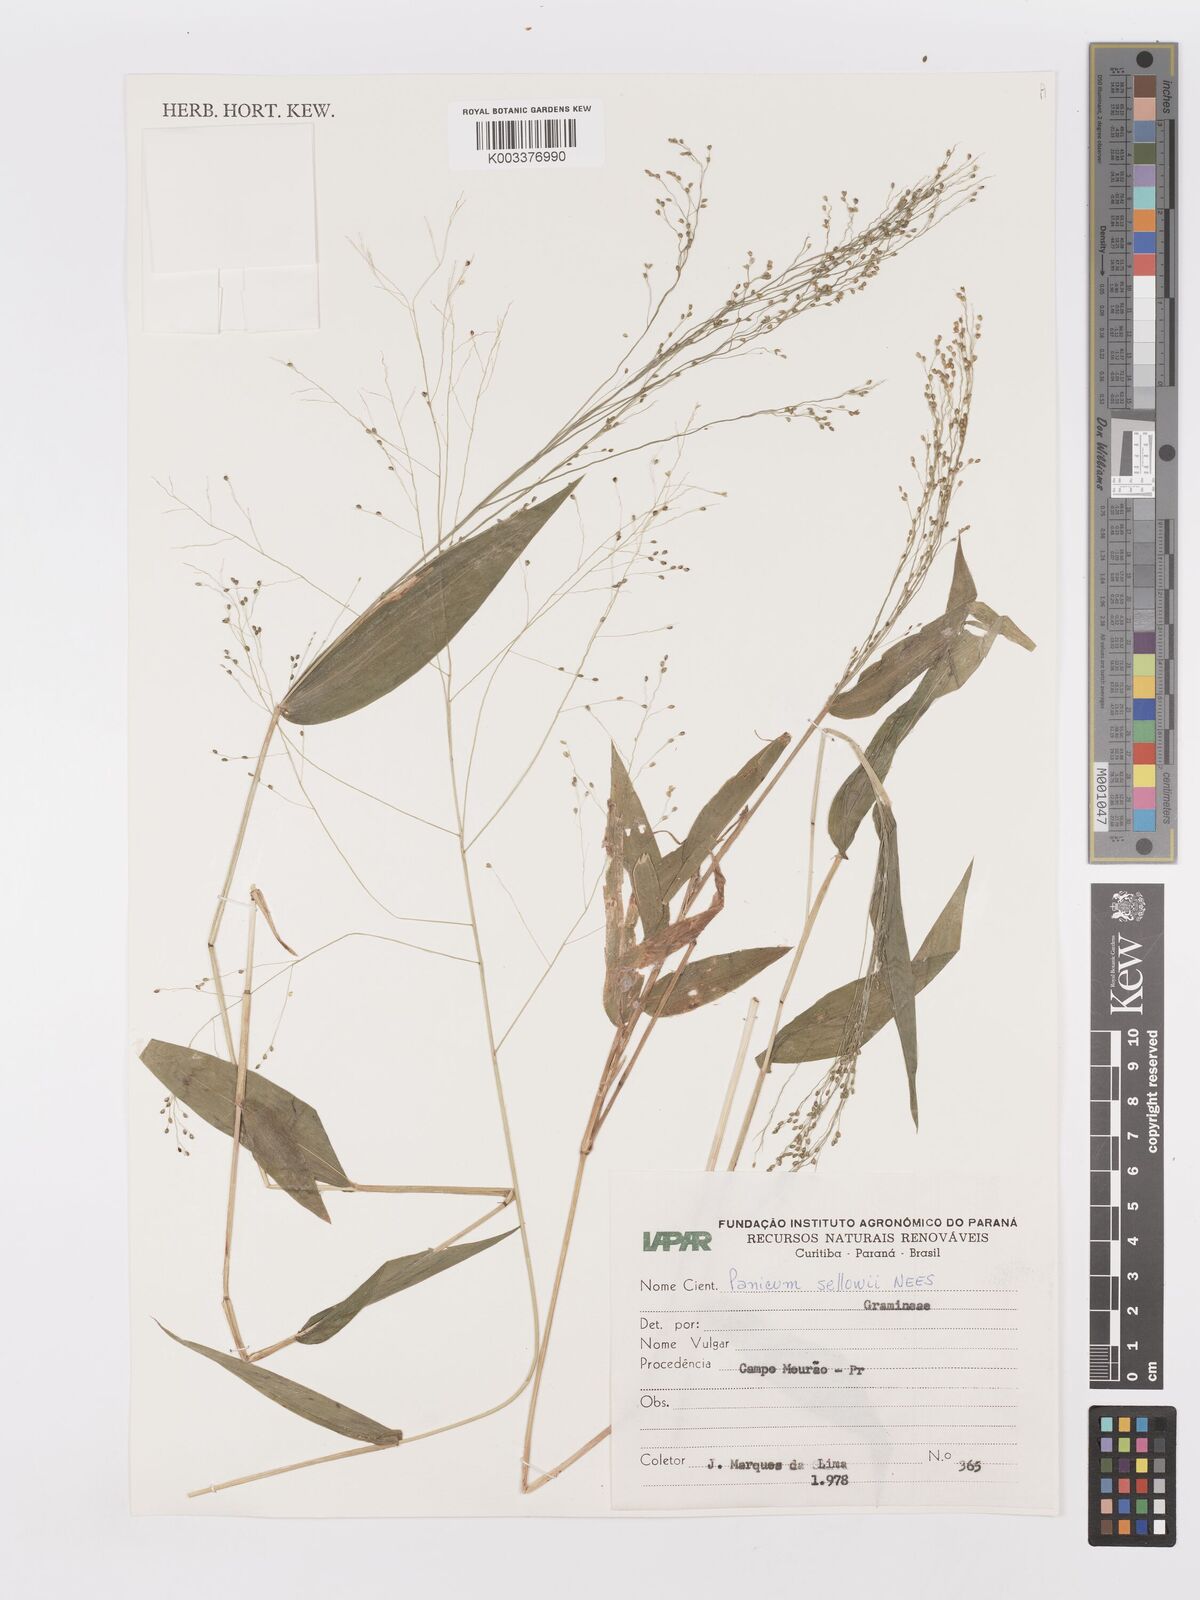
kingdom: Plantae
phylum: Tracheophyta
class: Liliopsida
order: Poales
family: Poaceae
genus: Panicum
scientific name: Panicum millegrana
